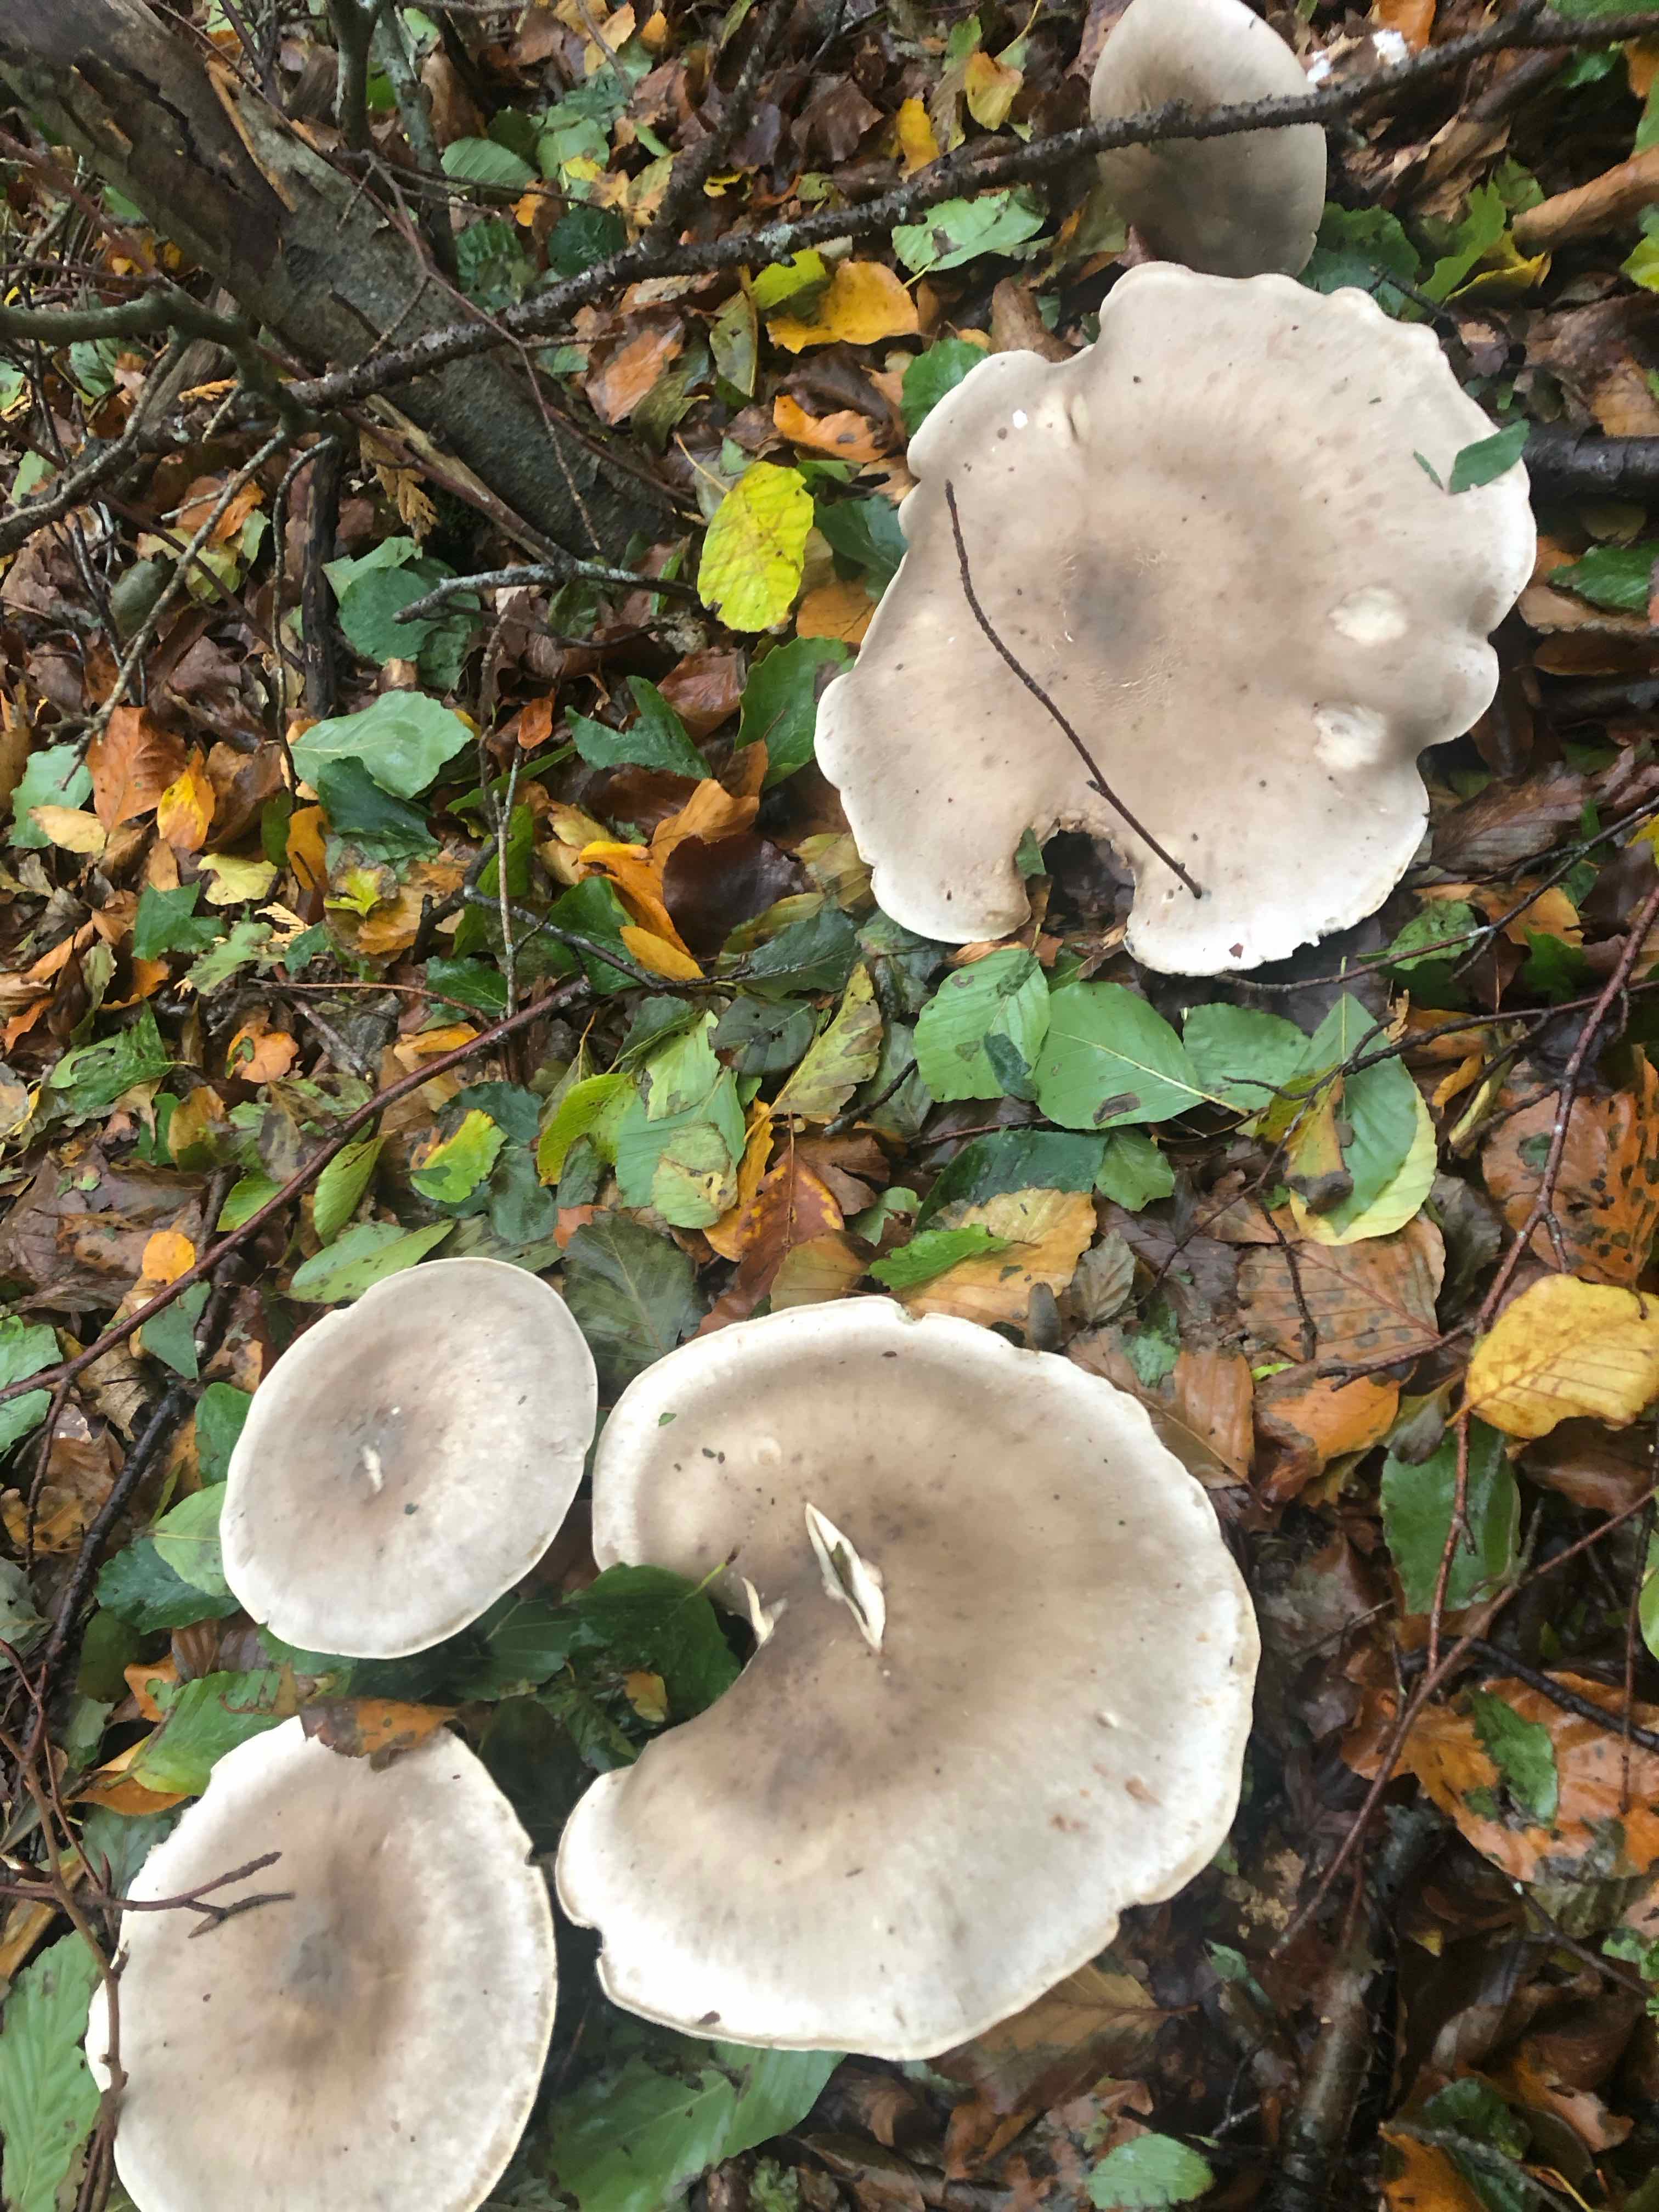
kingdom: Fungi
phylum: Basidiomycota
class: Agaricomycetes
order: Agaricales
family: Tricholomataceae
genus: Clitocybe
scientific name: Clitocybe nebularis
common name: tåge-tragthat
